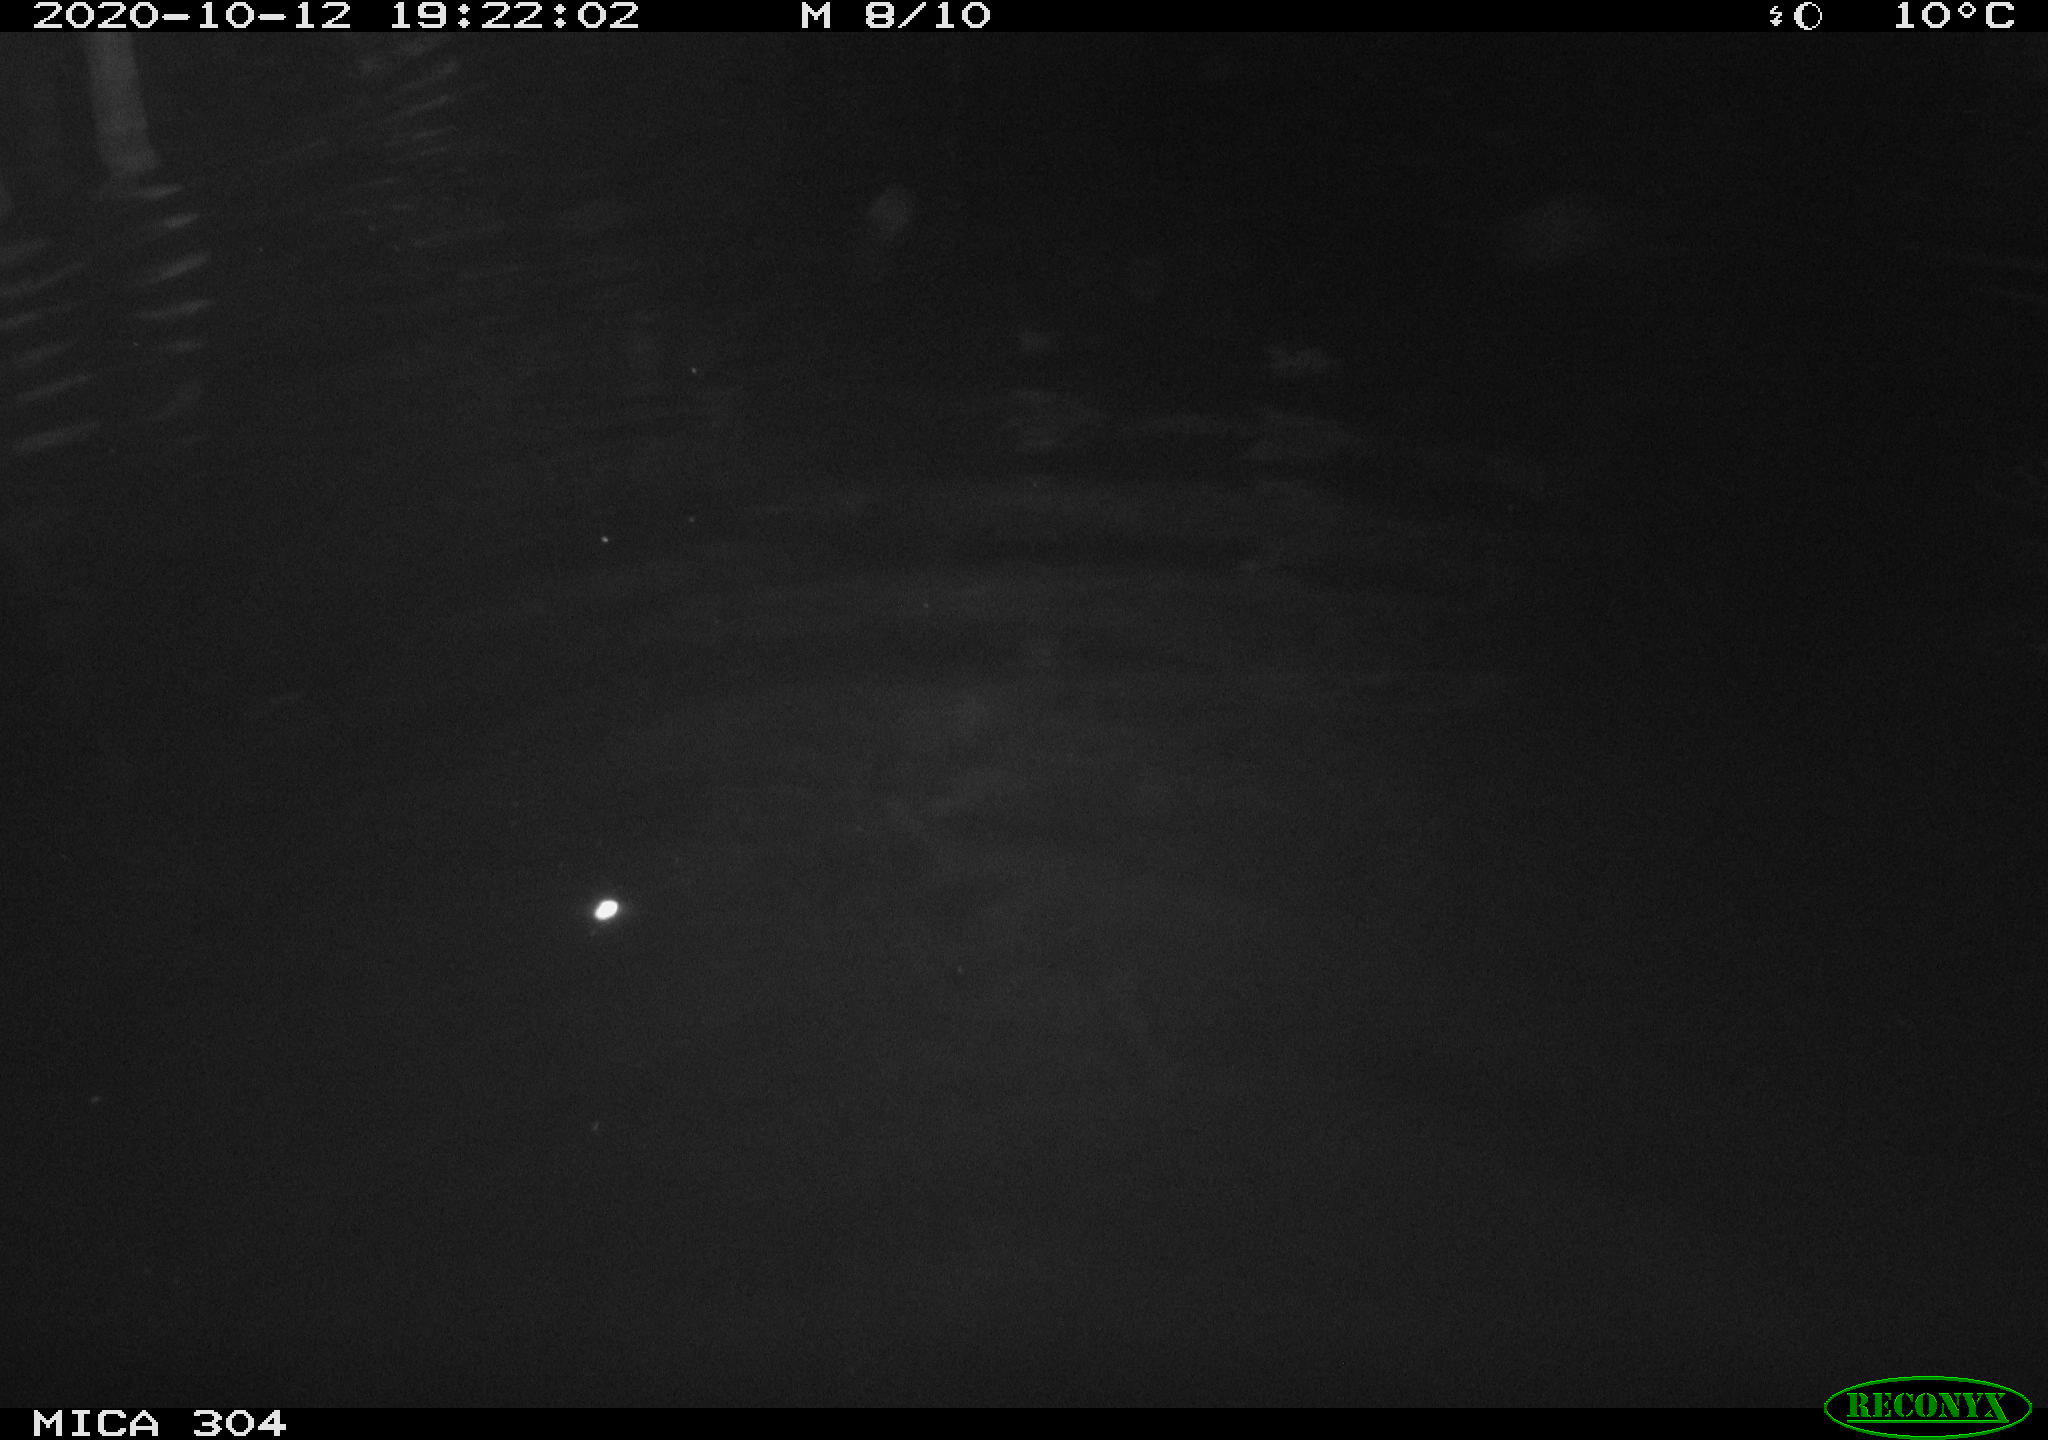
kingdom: Animalia
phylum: Chordata
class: Mammalia
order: Rodentia
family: Muridae
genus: Rattus
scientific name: Rattus norvegicus
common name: Brown rat
